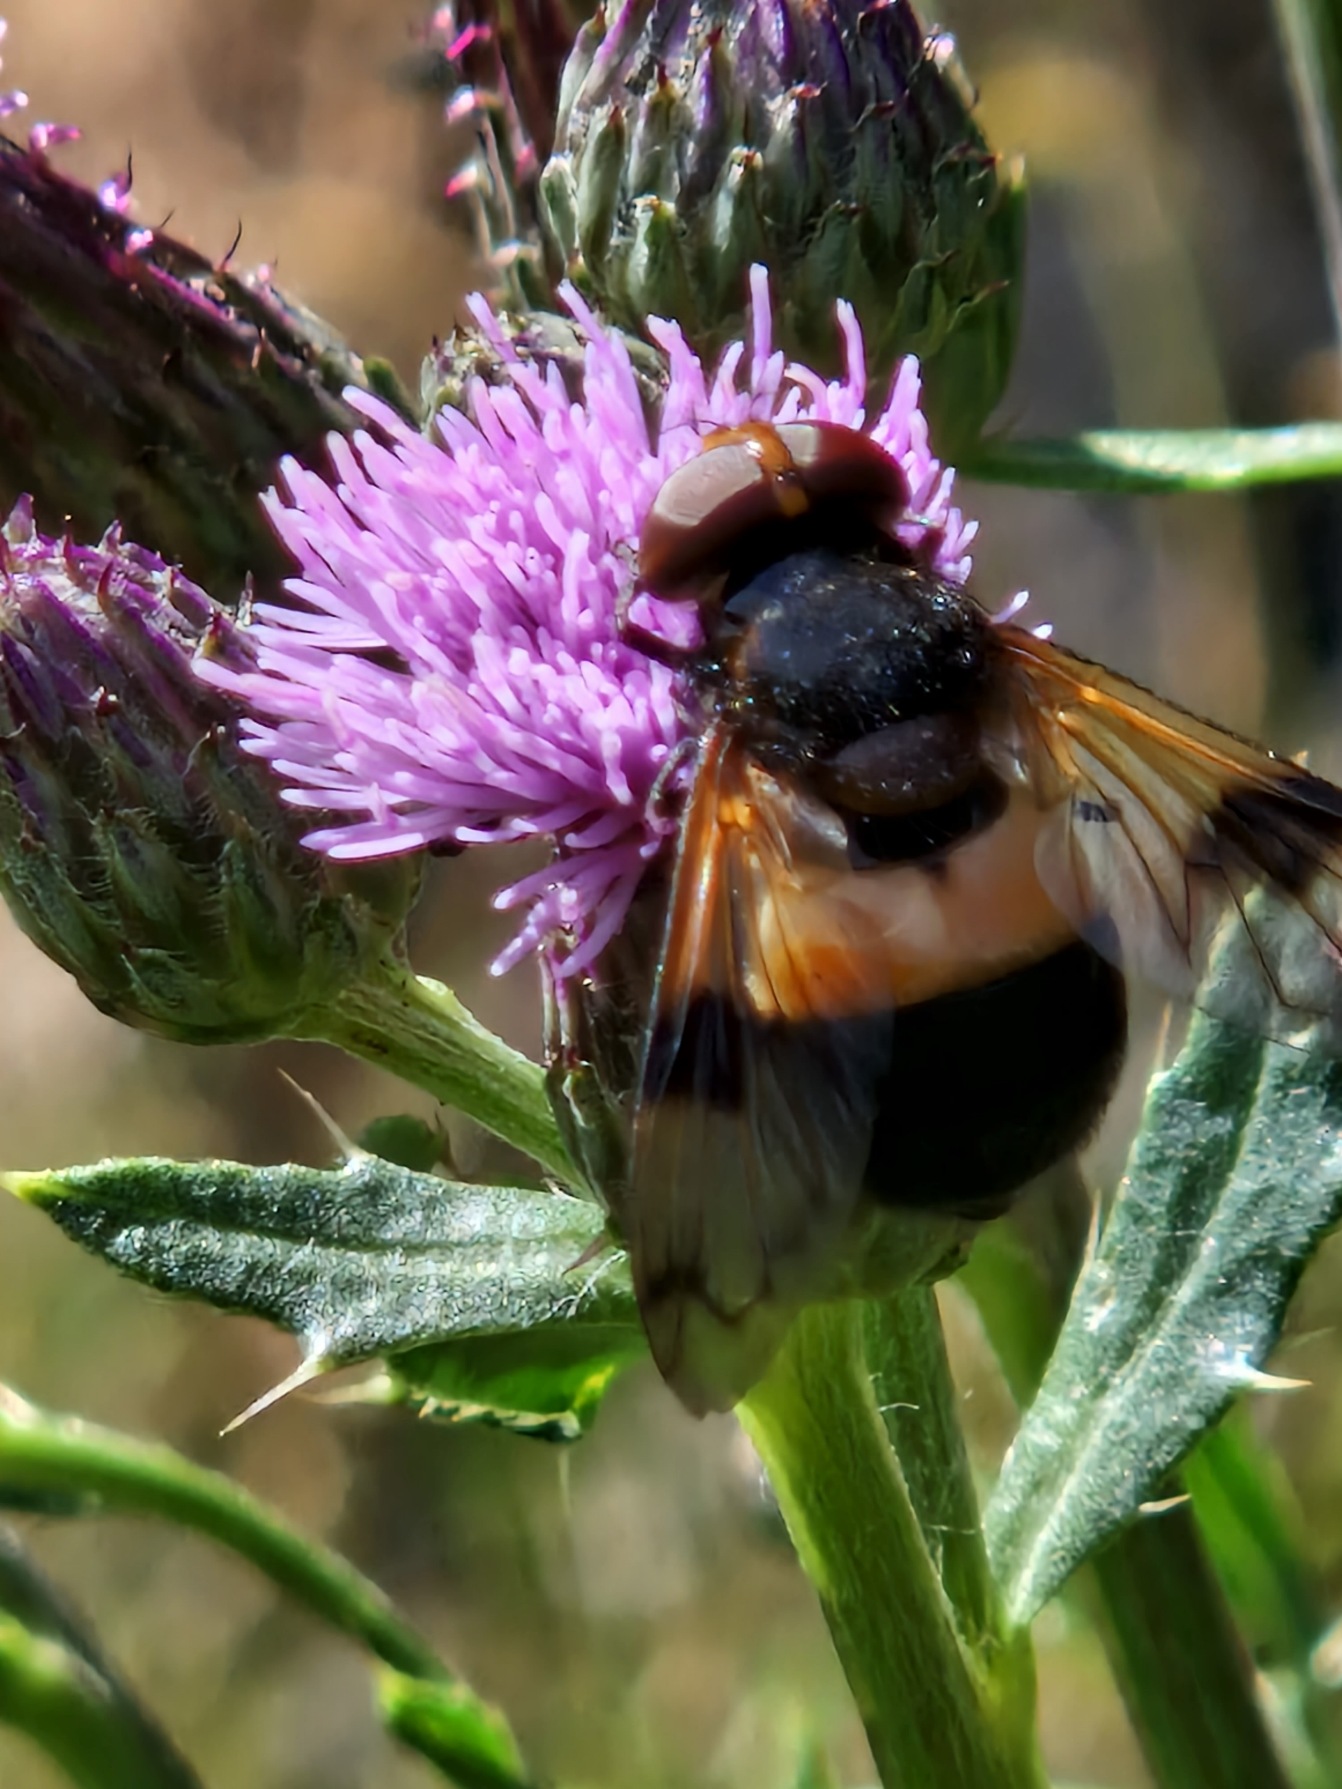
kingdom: Animalia
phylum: Arthropoda
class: Insecta
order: Diptera
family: Syrphidae
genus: Volucella
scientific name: Volucella pellucens
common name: Hvidbåndet humlesvirreflue
